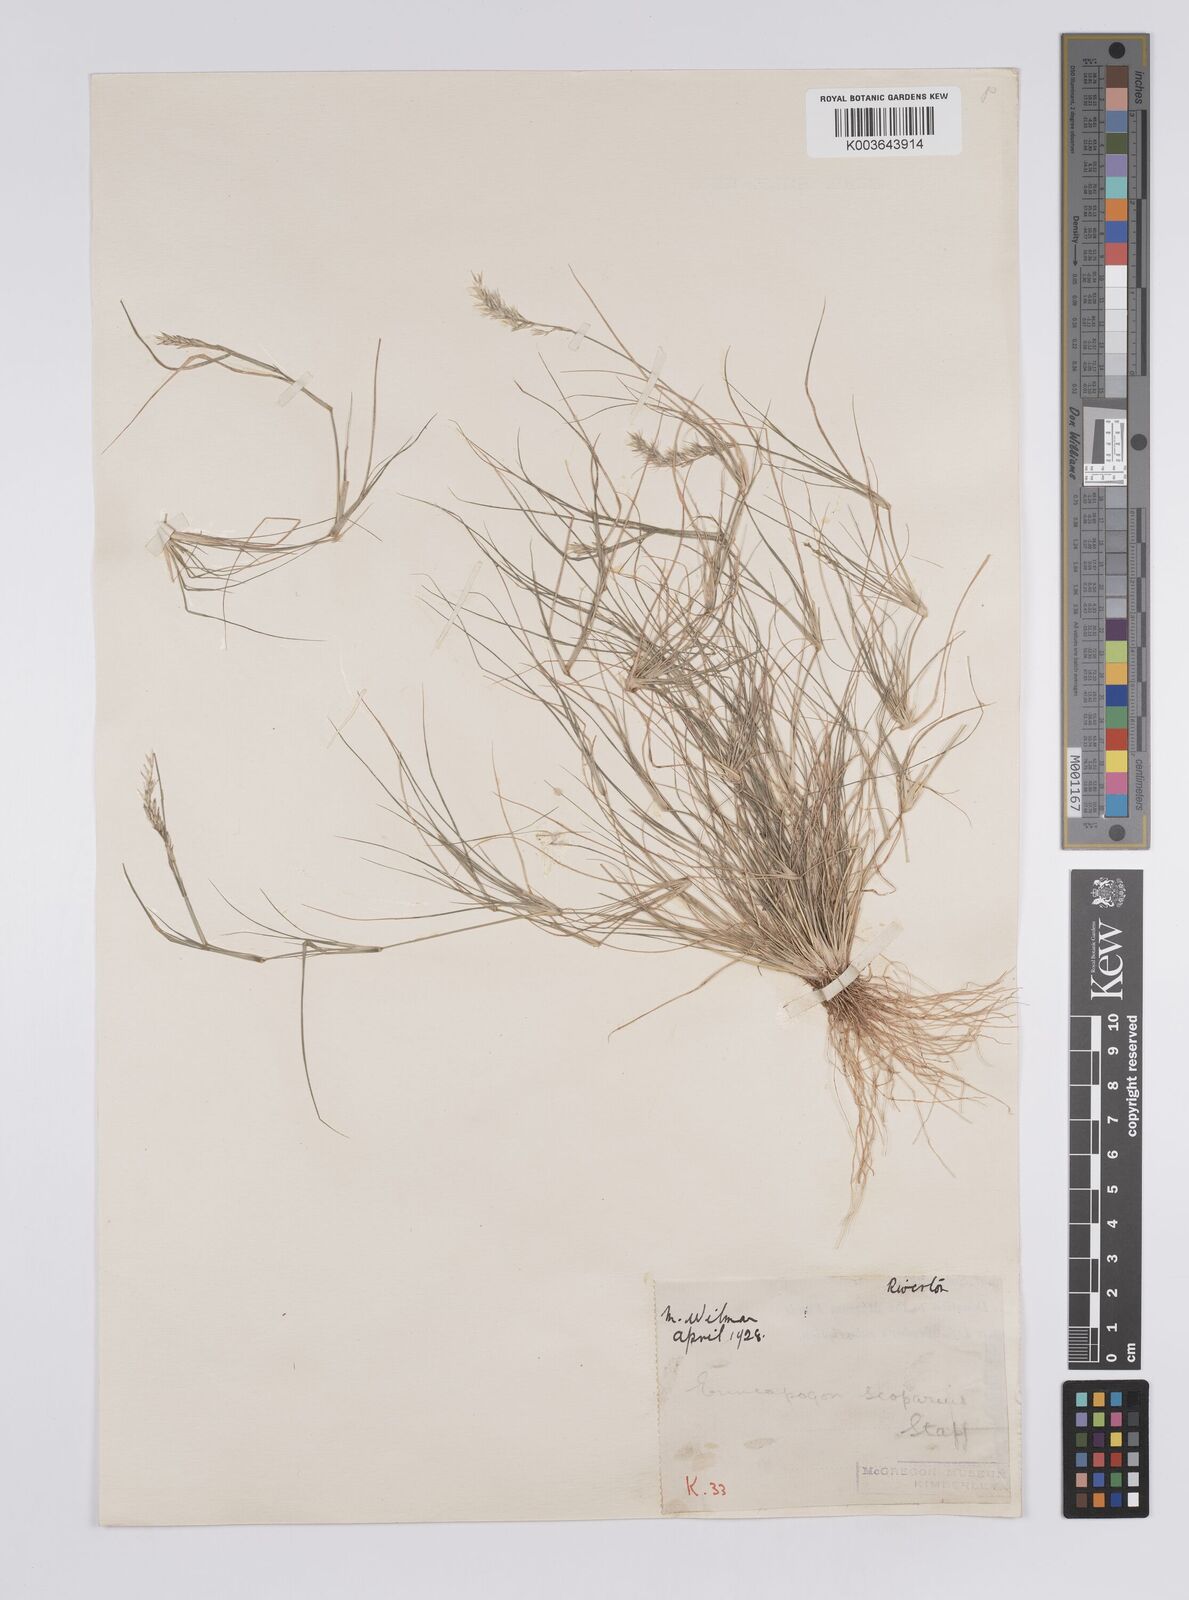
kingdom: Plantae
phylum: Tracheophyta
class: Liliopsida
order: Poales
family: Poaceae
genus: Enneapogon
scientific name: Enneapogon desvauxii
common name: Feather pappus grass
